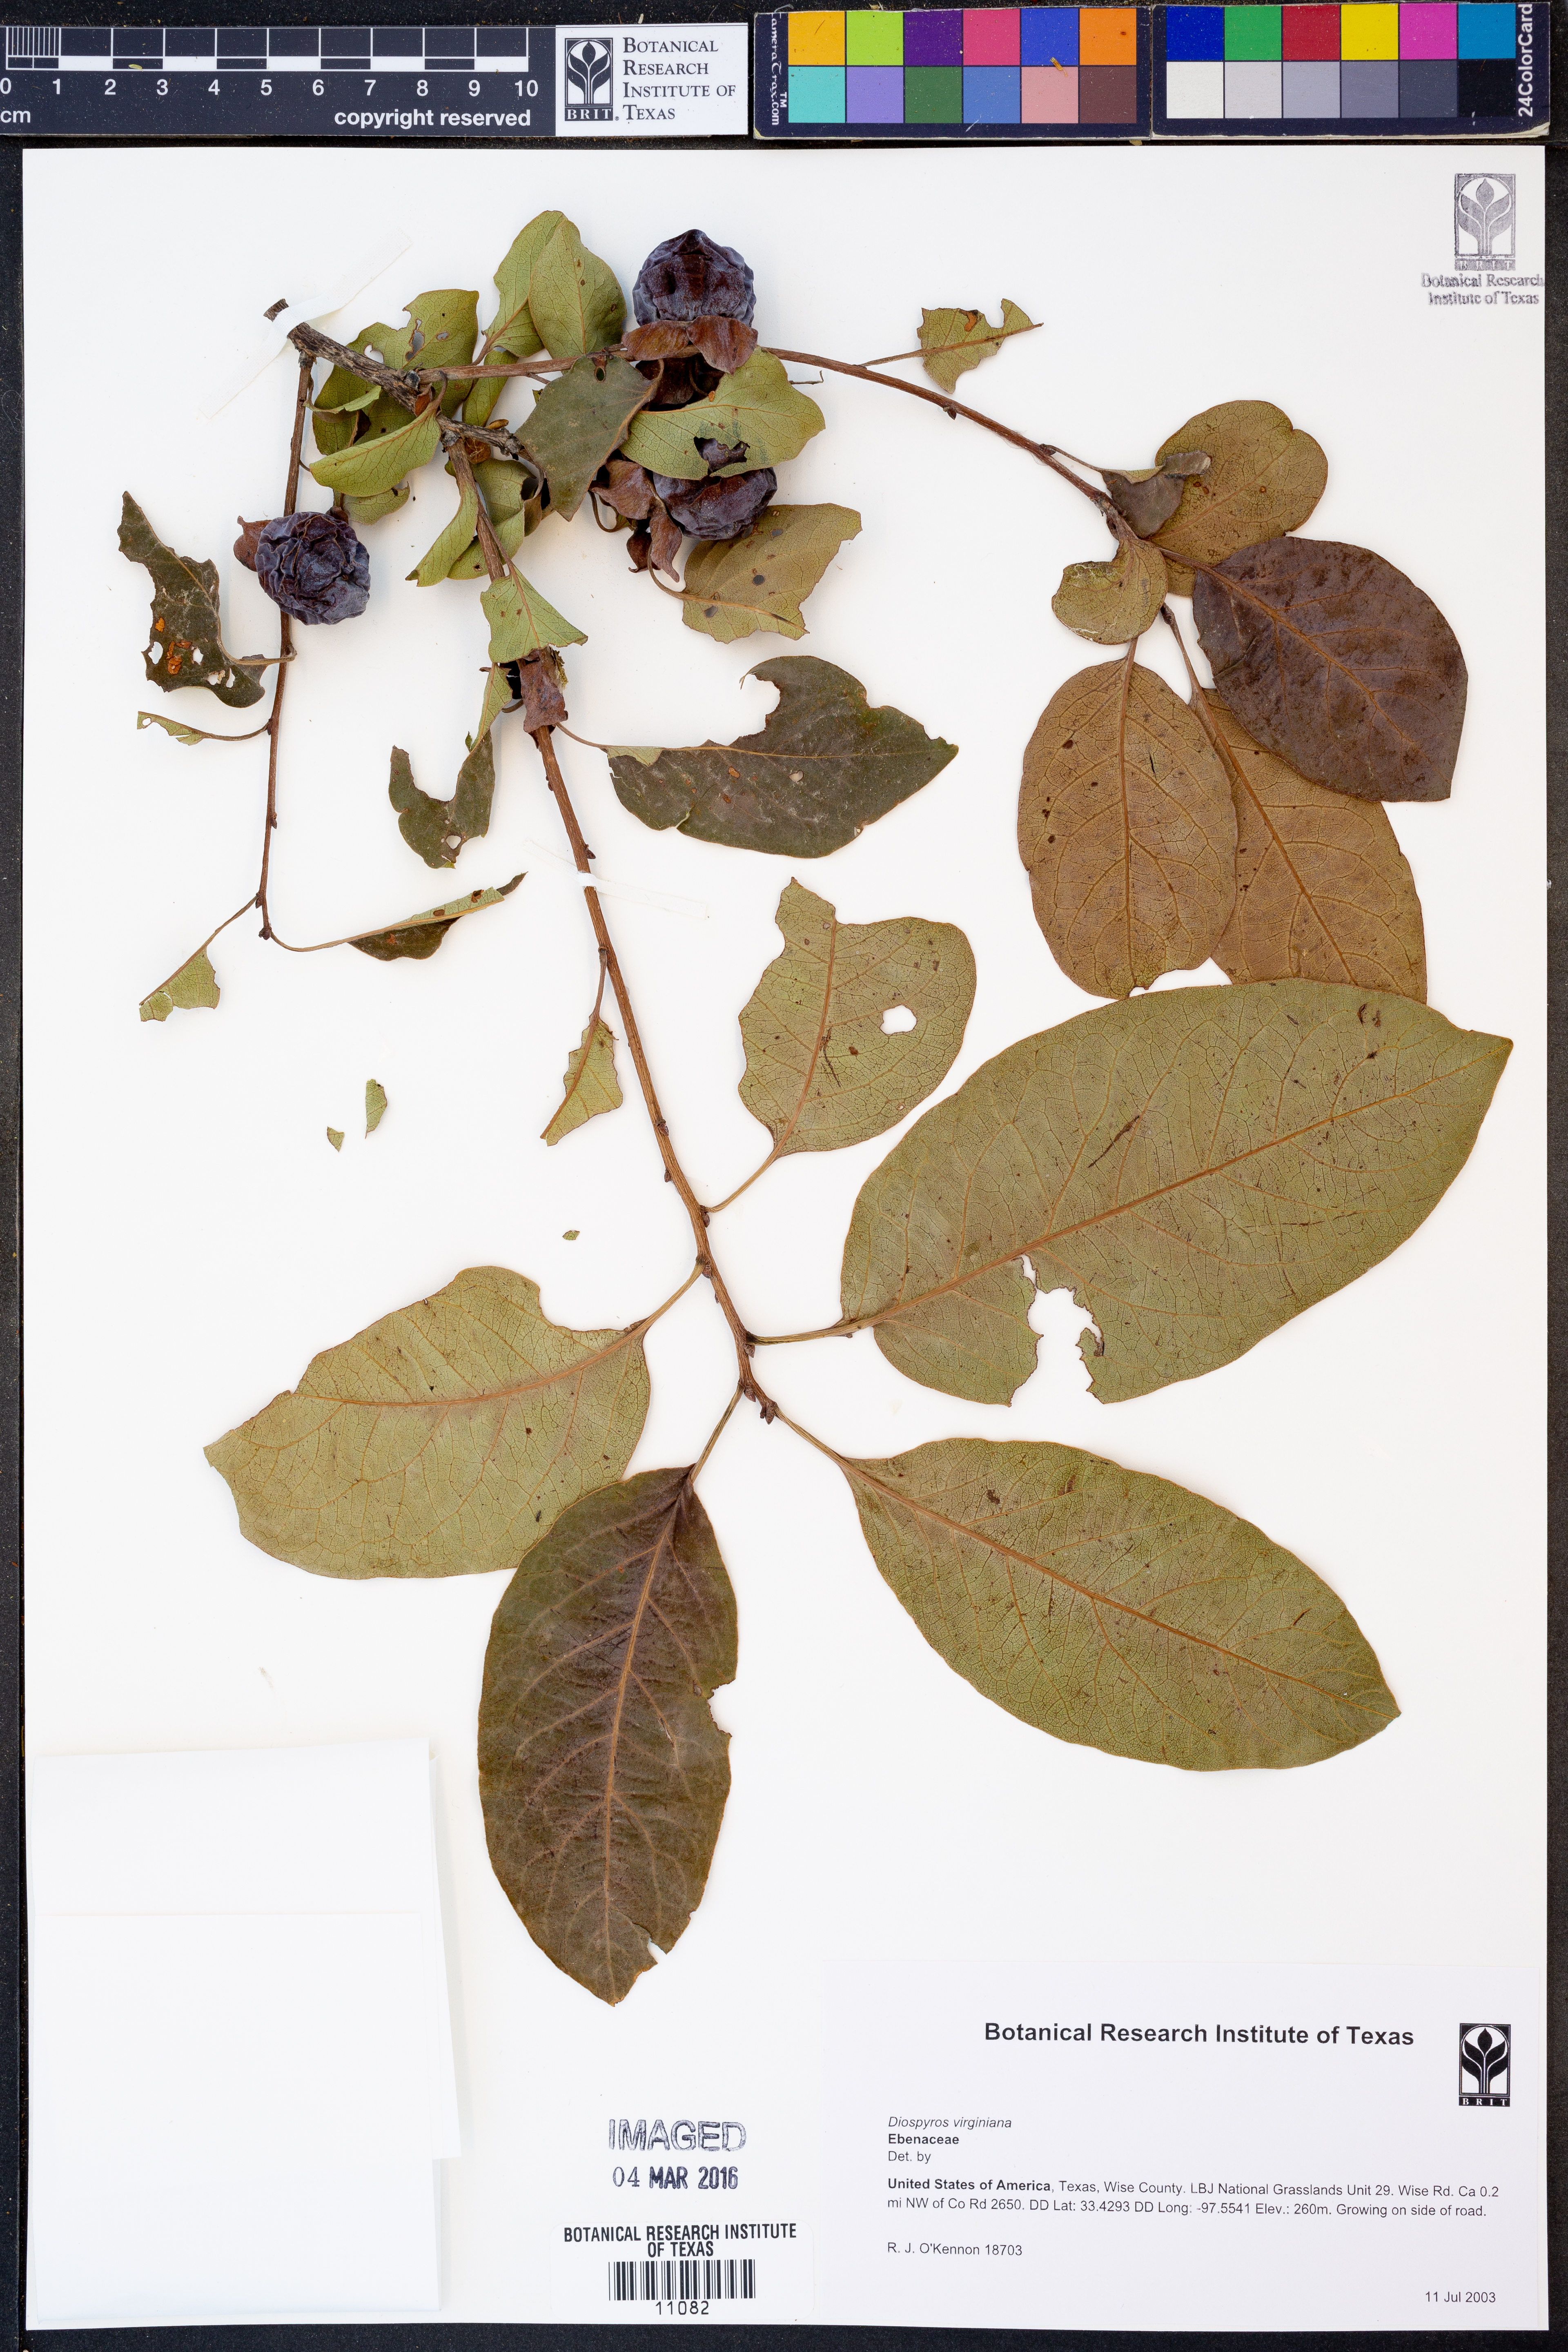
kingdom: Plantae
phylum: Tracheophyta
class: Magnoliopsida
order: Ericales
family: Ebenaceae
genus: Diospyros
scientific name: Diospyros virginiana
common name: Persimmon
